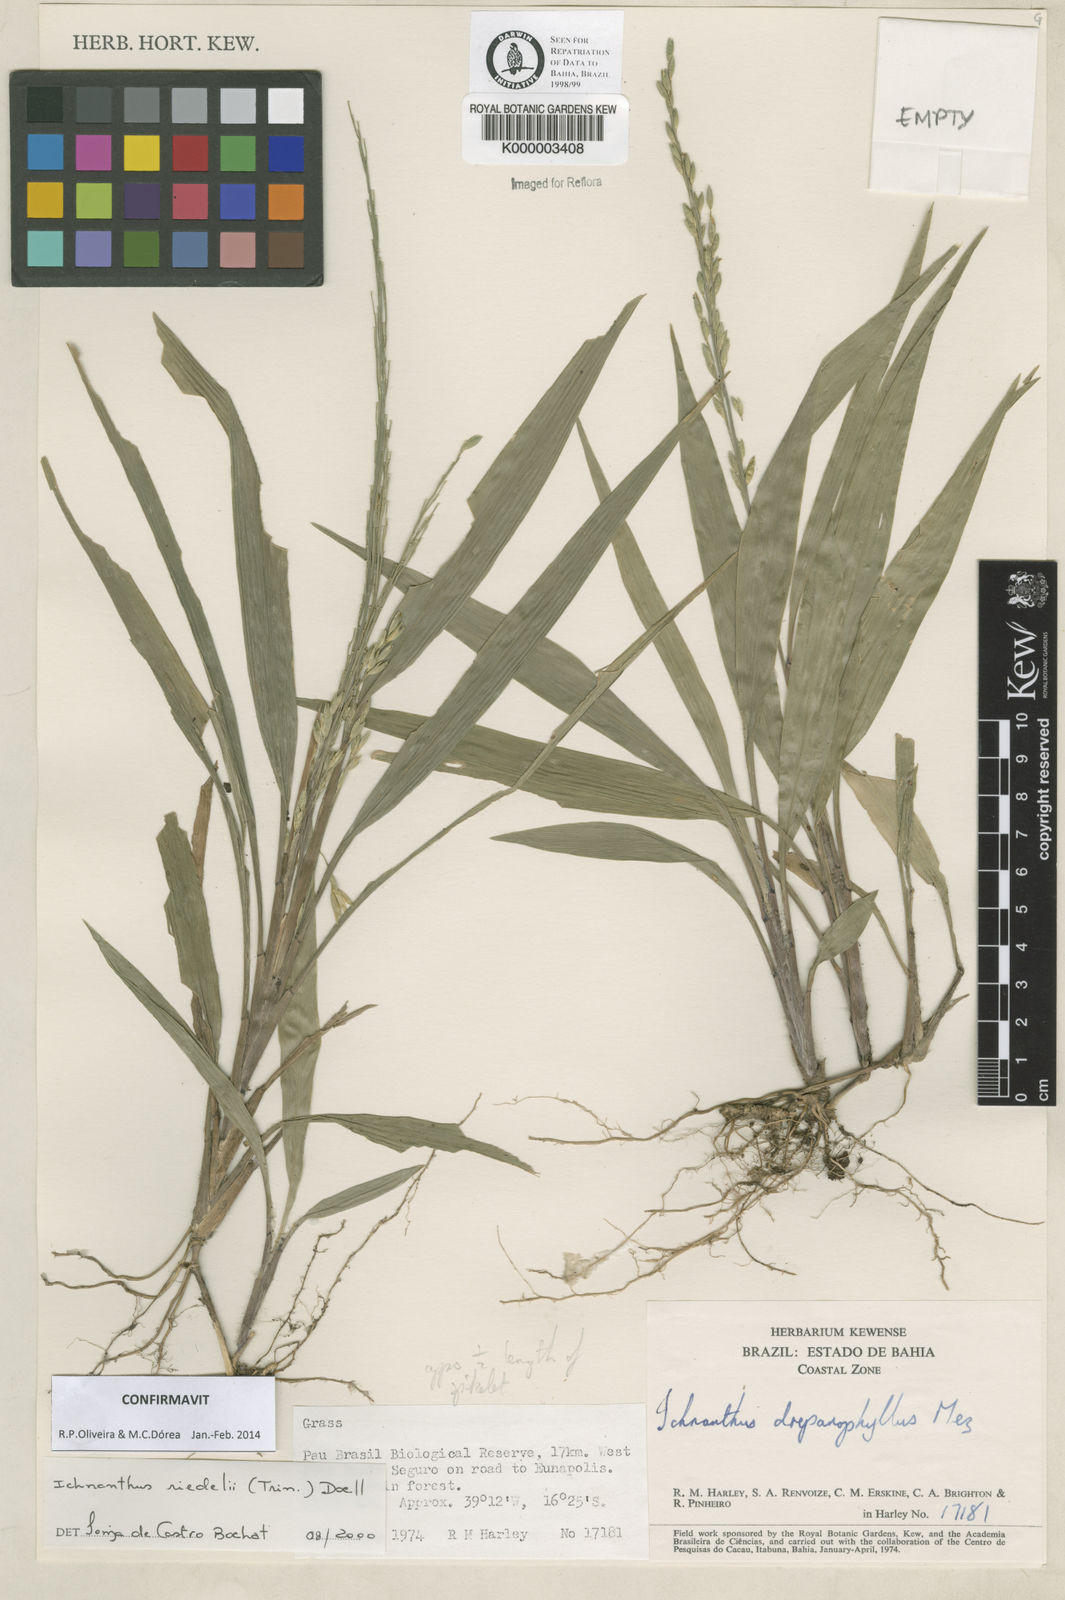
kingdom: Plantae
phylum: Tracheophyta
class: Liliopsida
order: Poales
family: Poaceae
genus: Ichnanthus
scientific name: Ichnanthus
